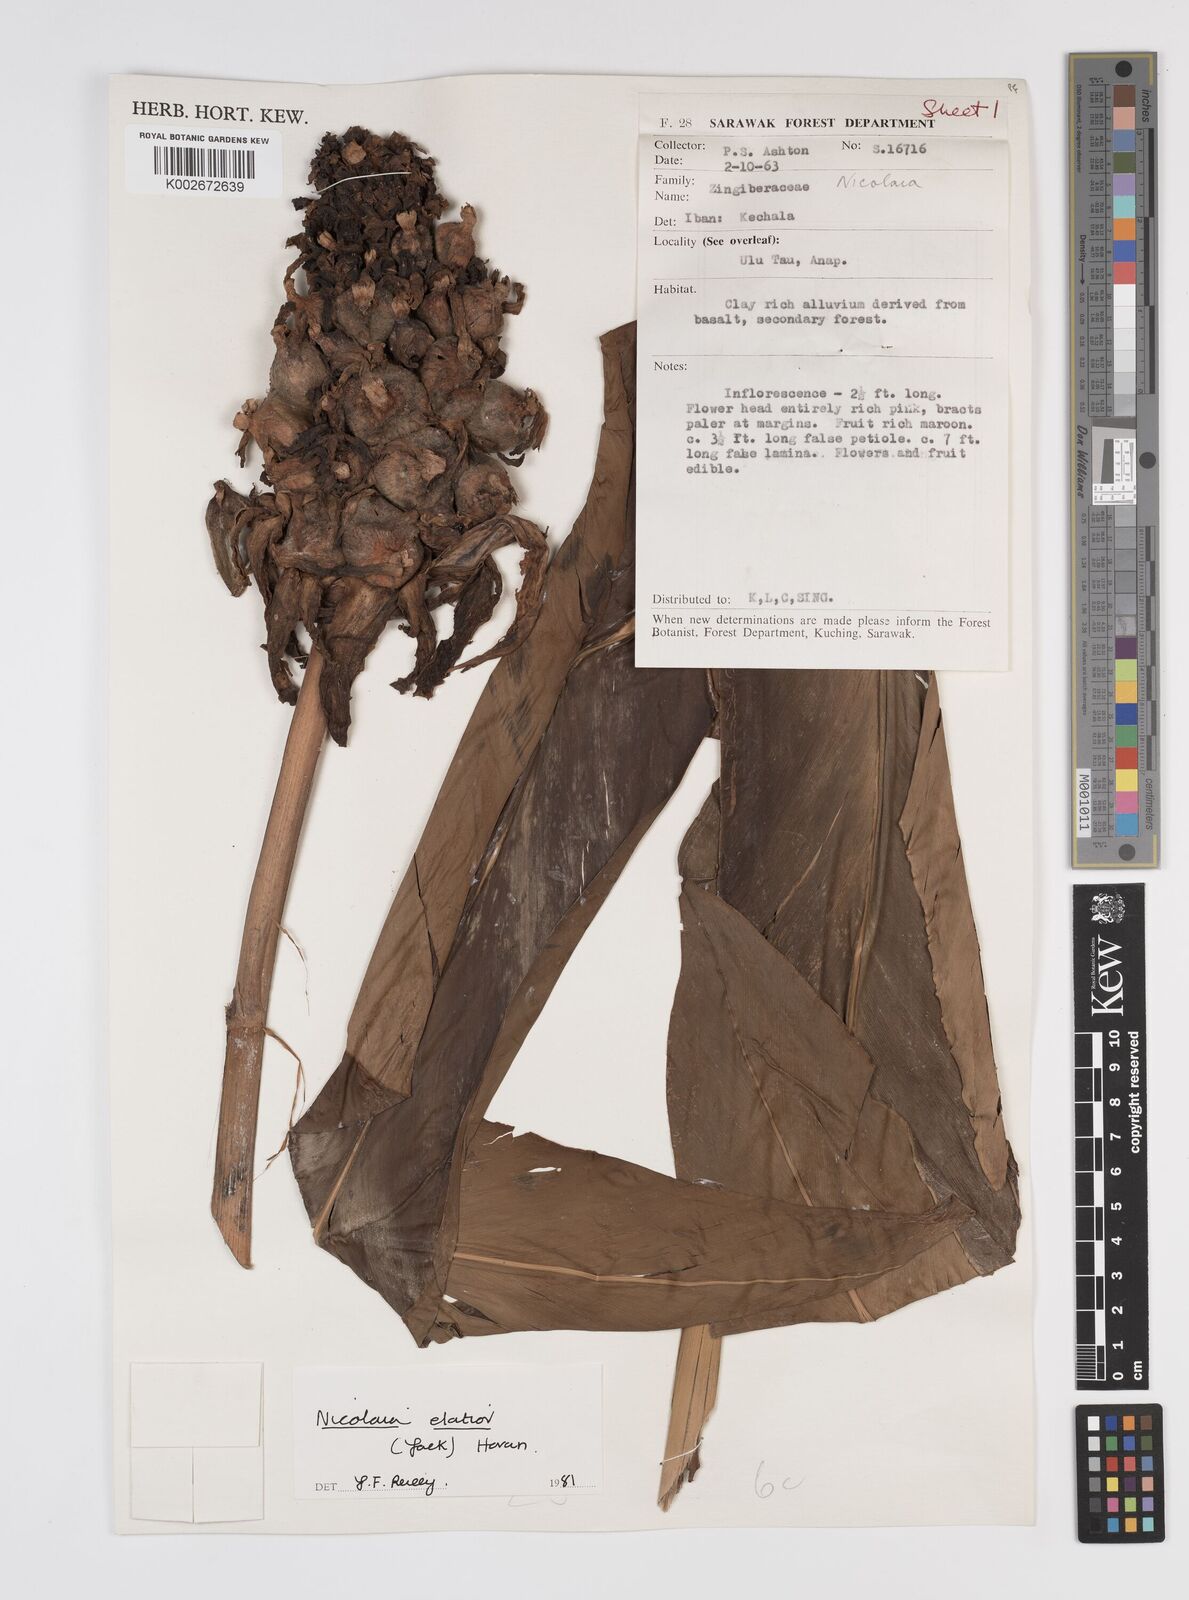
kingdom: Plantae
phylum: Tracheophyta
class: Liliopsida
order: Zingiberales
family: Zingiberaceae
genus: Etlingera
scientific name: Etlingera elatior
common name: Philippine waxflower
